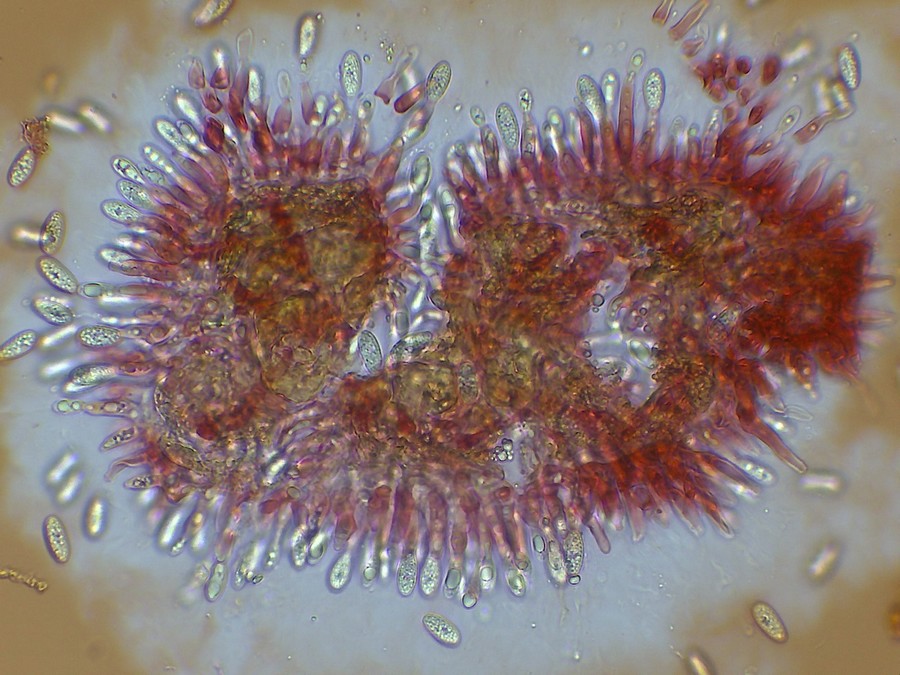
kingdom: Fungi
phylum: Ascomycota
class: Leotiomycetes
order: Helotiales
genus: Cryptocline
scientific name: Cryptocline taxicola
